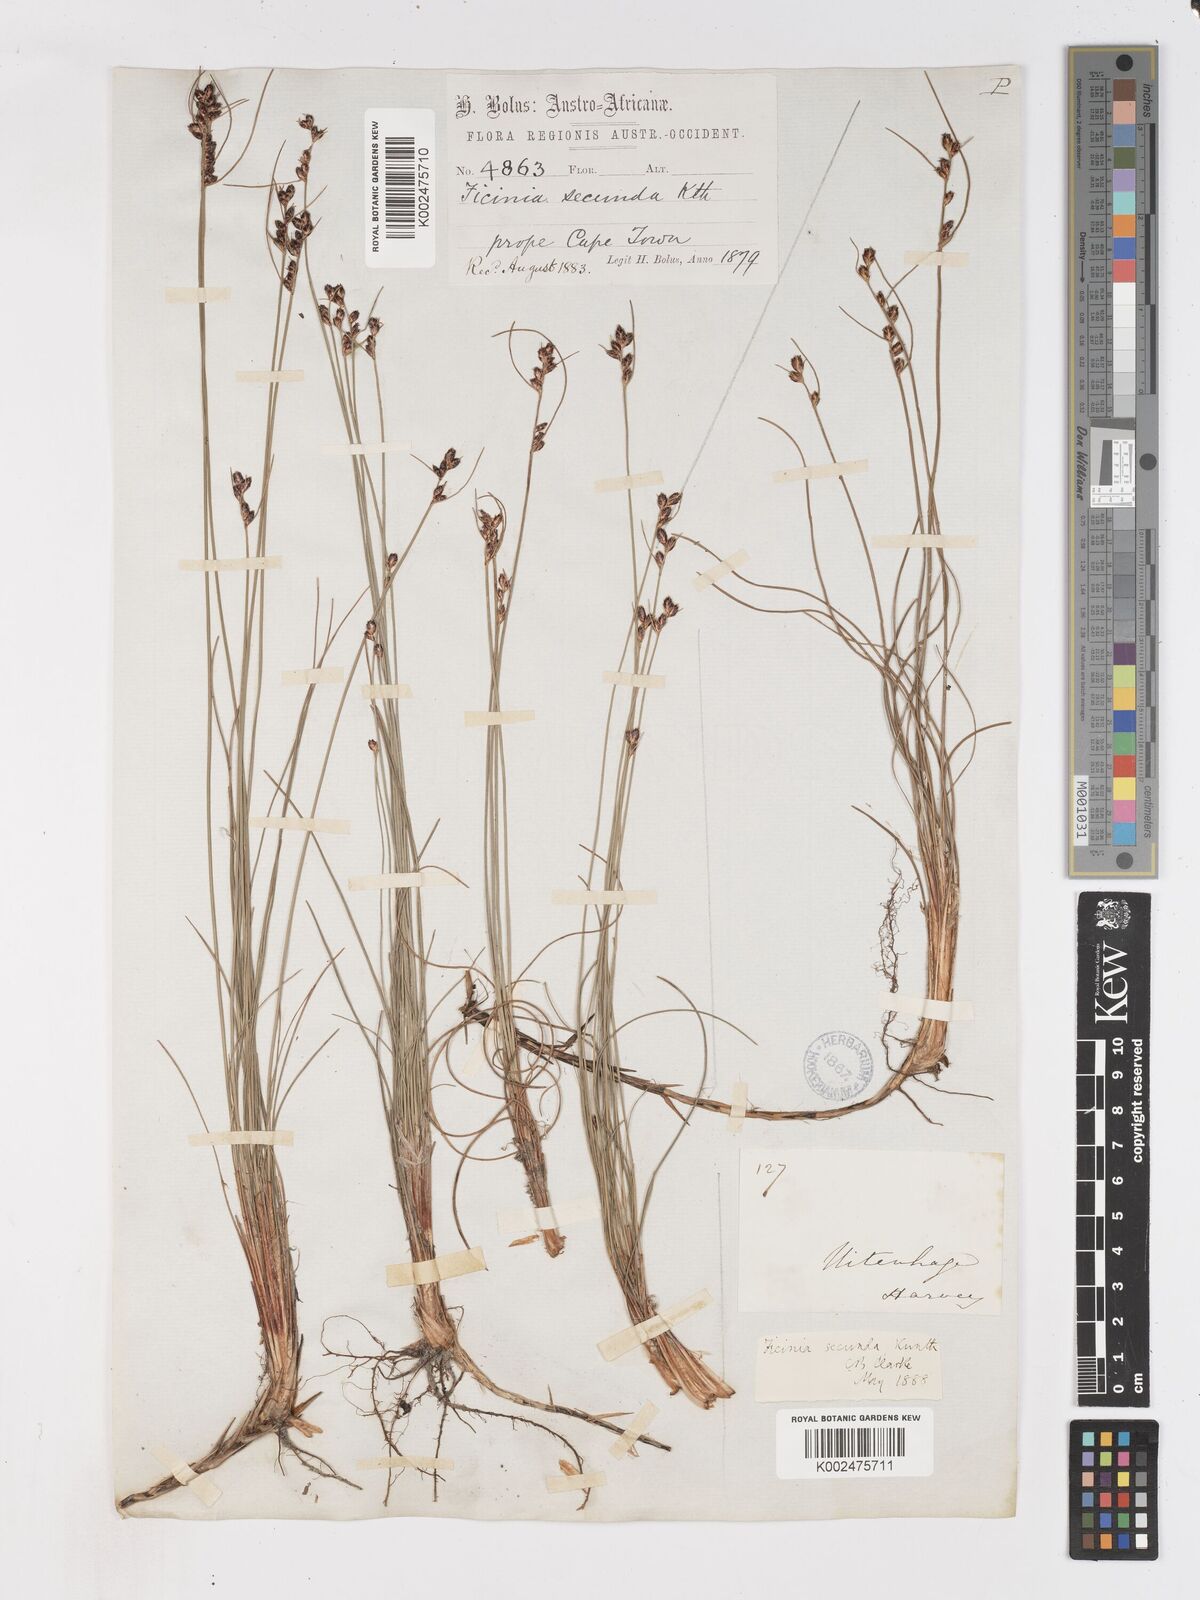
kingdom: Plantae
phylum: Tracheophyta
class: Liliopsida
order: Poales
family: Cyperaceae
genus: Ficinia
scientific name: Ficinia secunda
